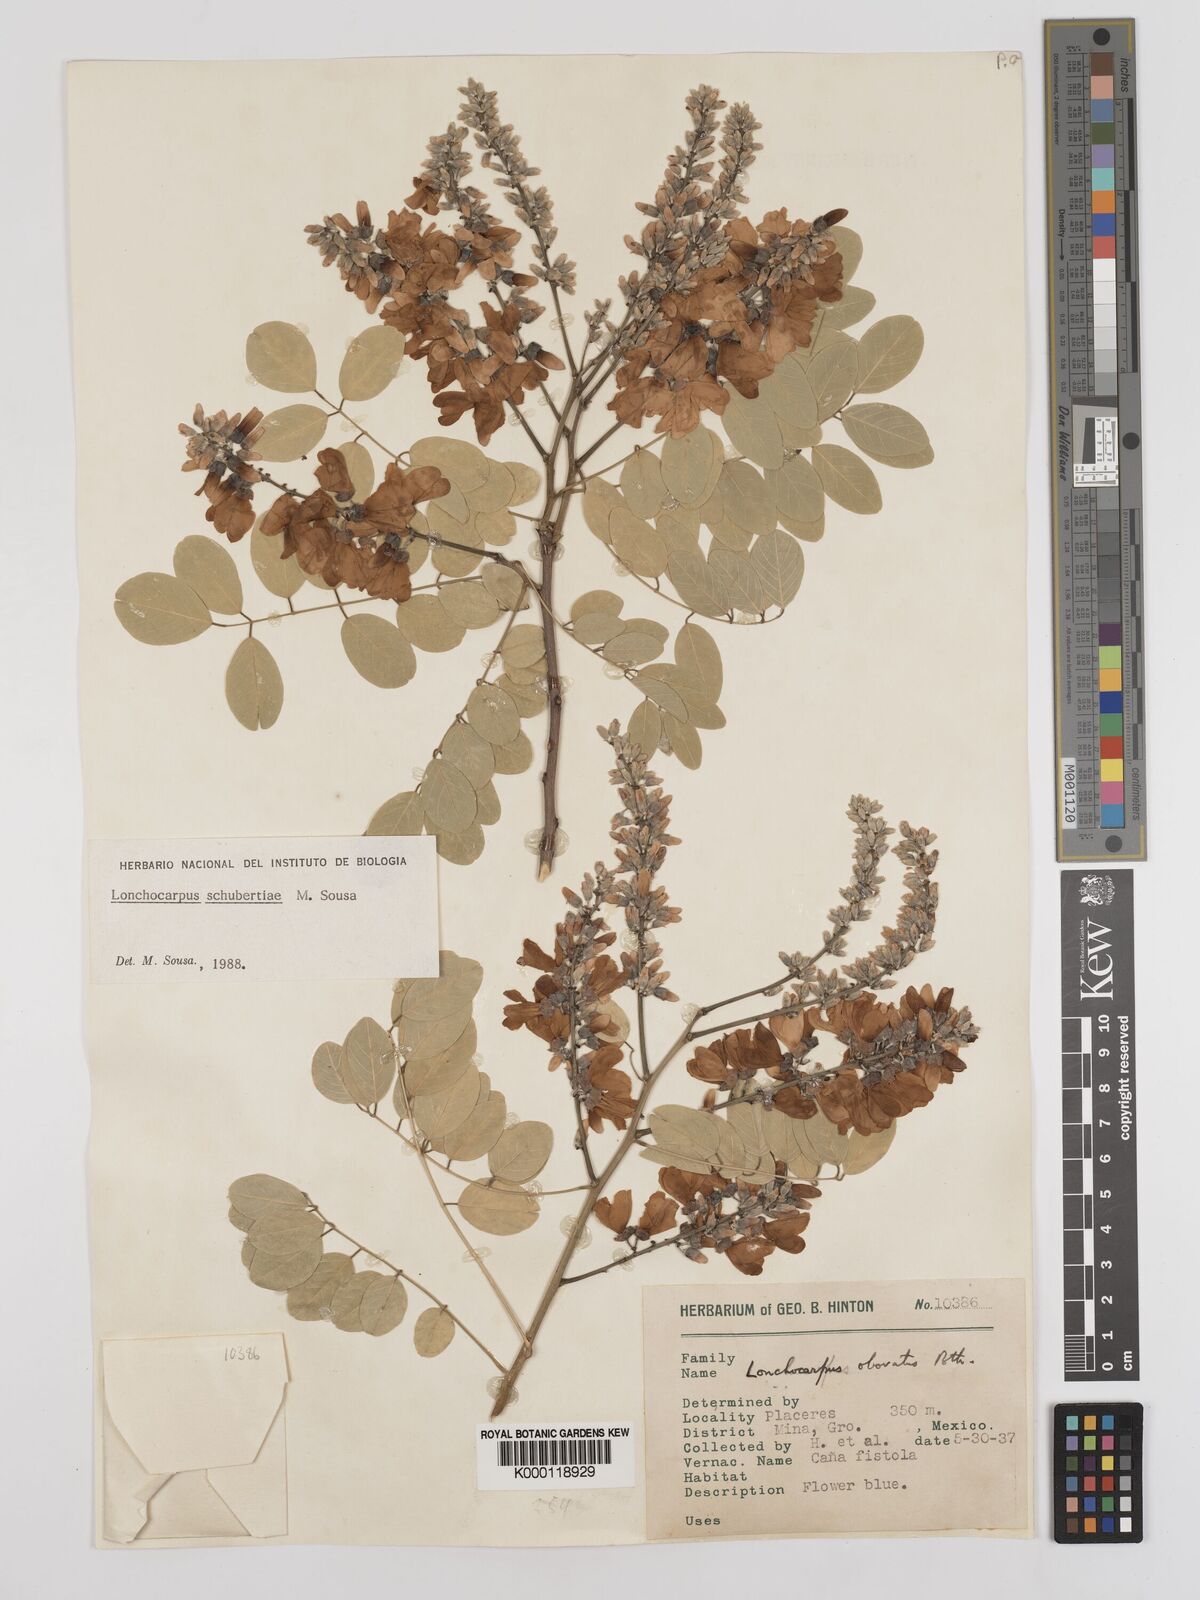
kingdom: Plantae
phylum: Tracheophyta
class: Magnoliopsida
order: Fabales
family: Fabaceae
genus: Lonchocarpus
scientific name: Lonchocarpus schubertiae
